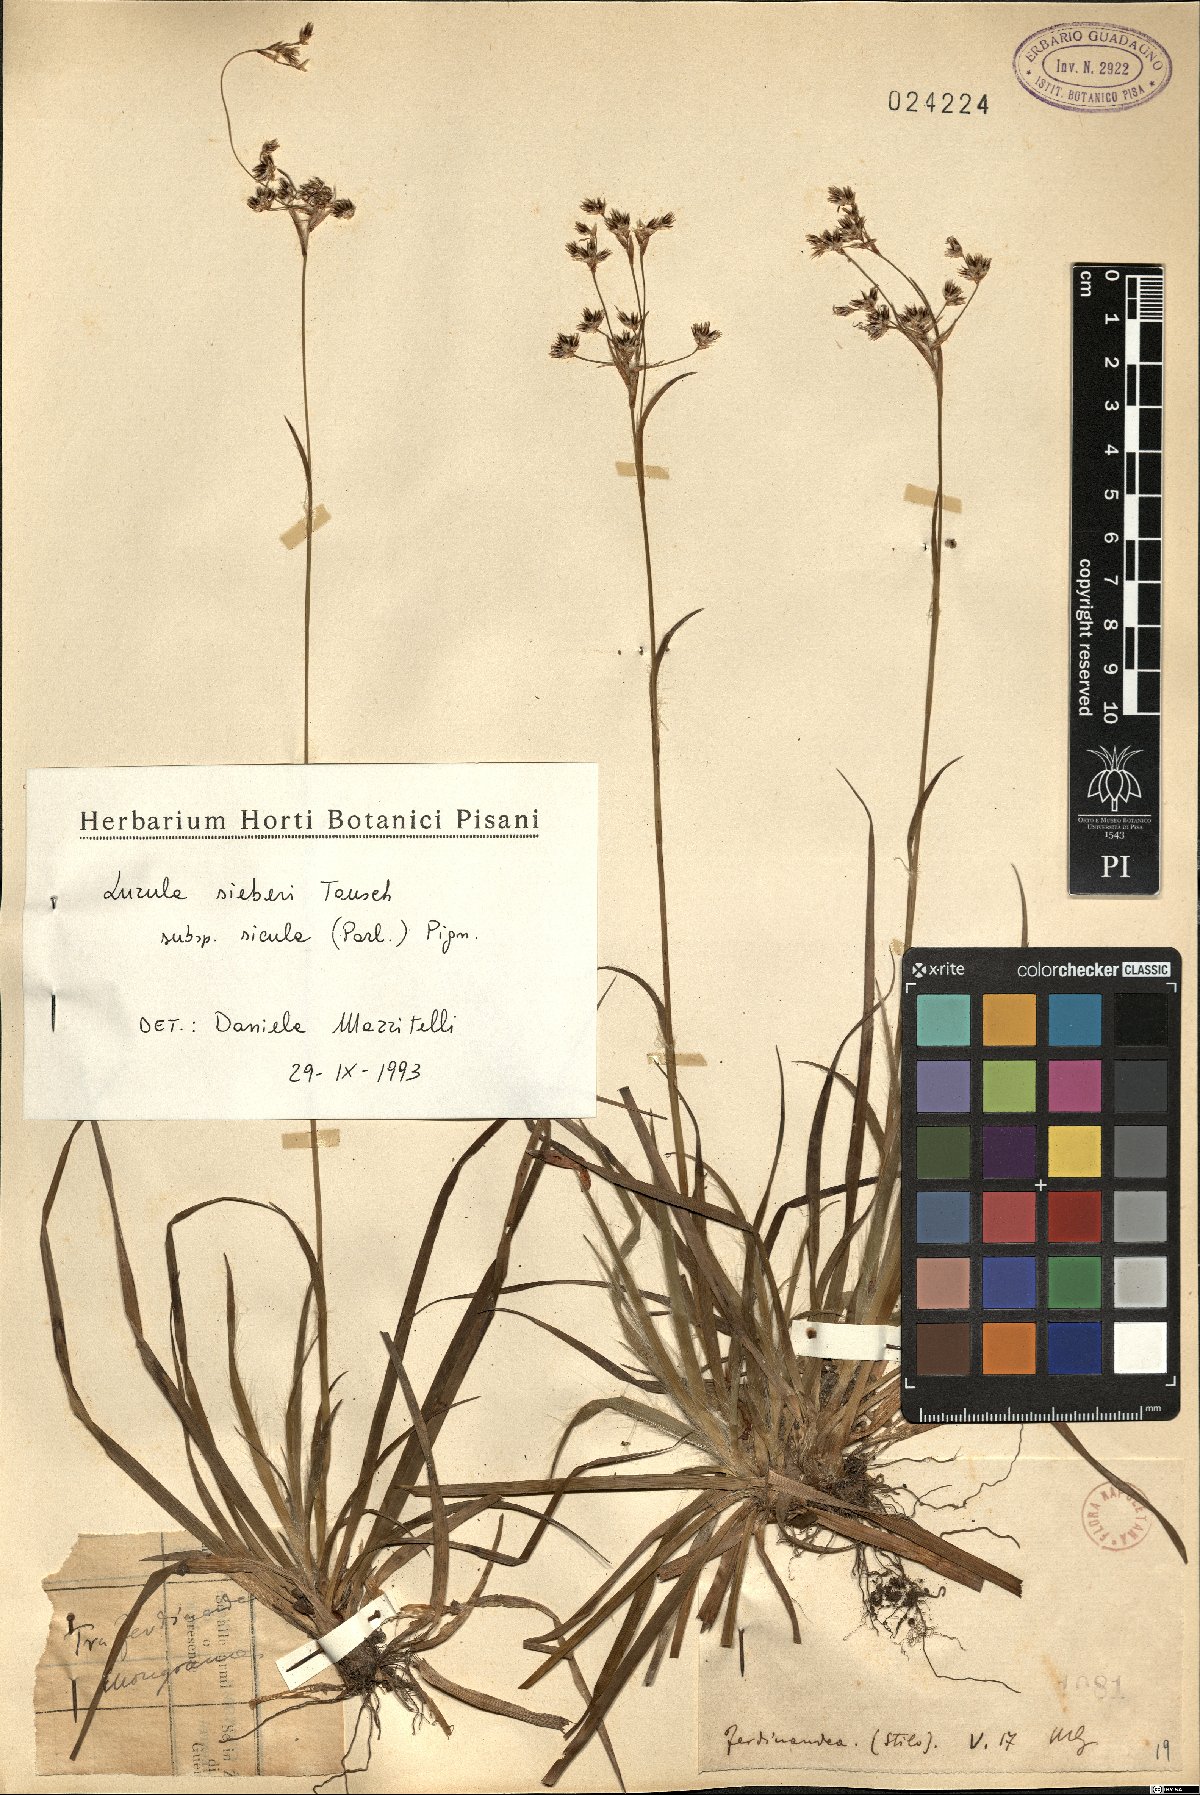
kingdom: Plantae
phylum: Tracheophyta
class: Liliopsida
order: Poales
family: Juncaceae
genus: Luzula
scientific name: Luzula sylvatica
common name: Great wood-rush
